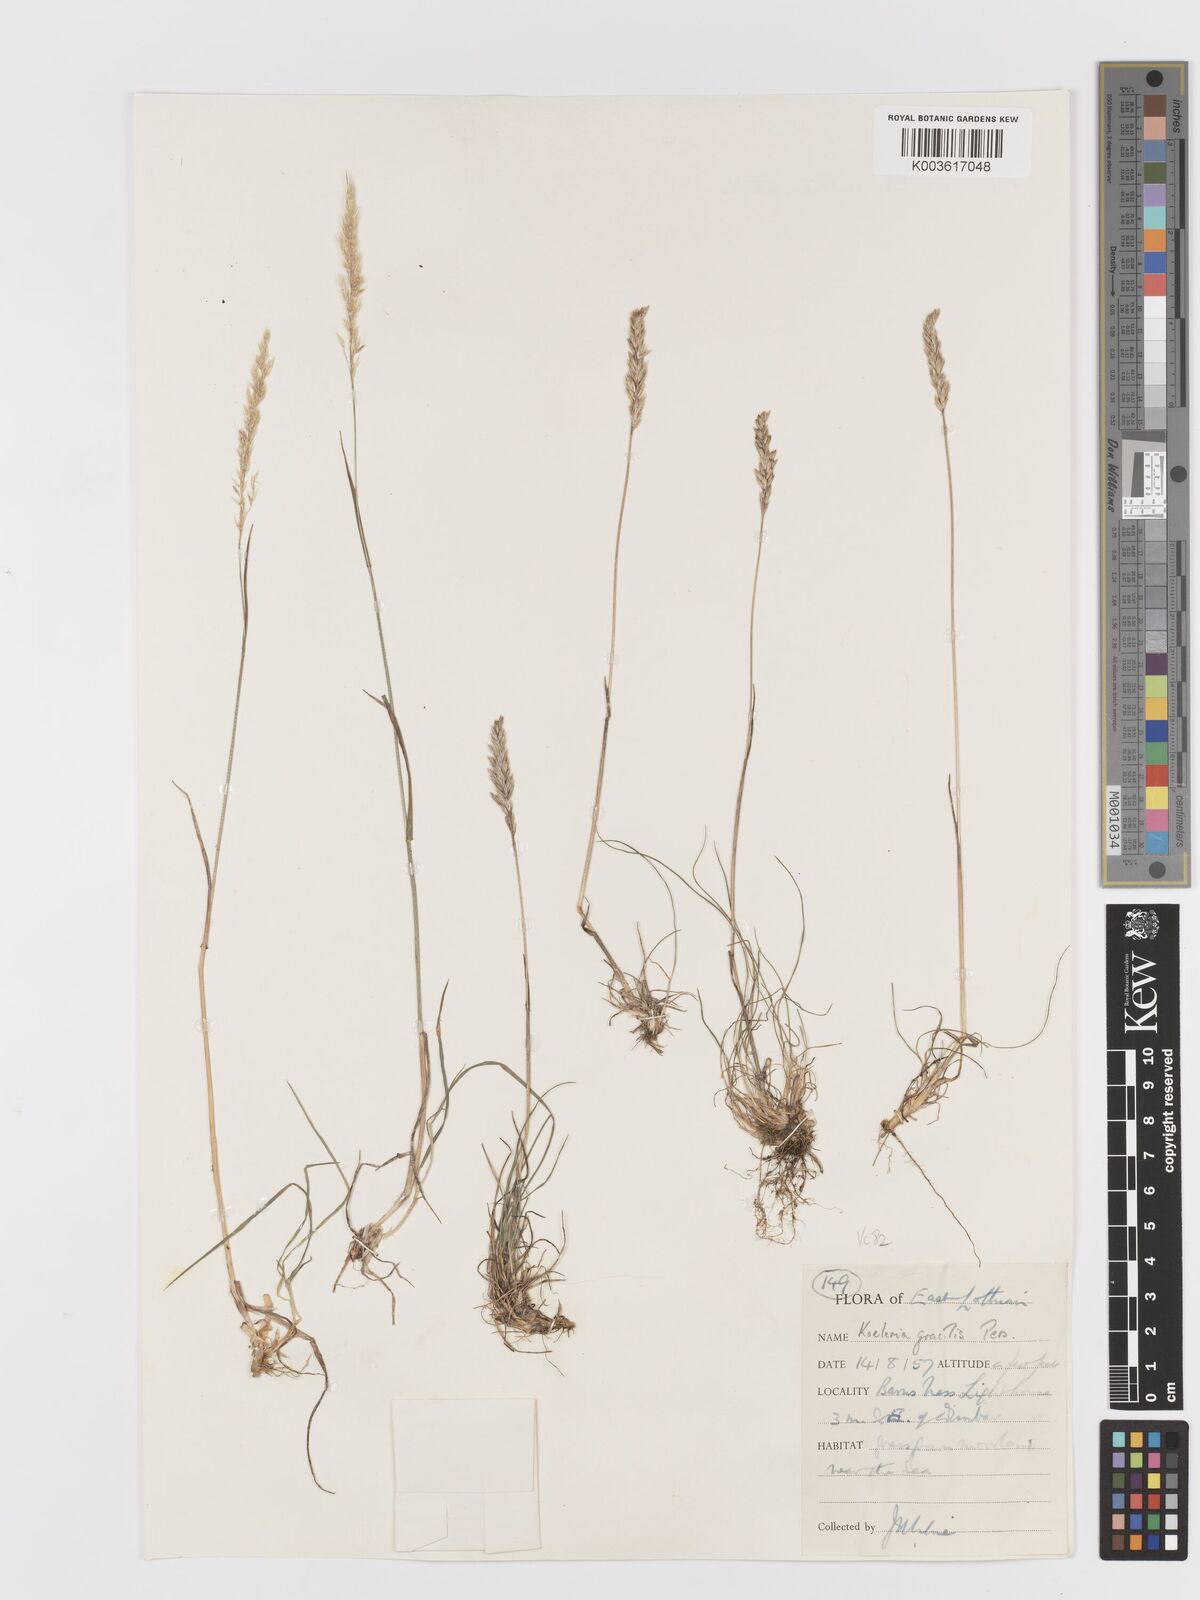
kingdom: Plantae
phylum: Tracheophyta
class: Liliopsida
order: Poales
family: Poaceae
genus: Koeleria
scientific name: Koeleria nitidula
